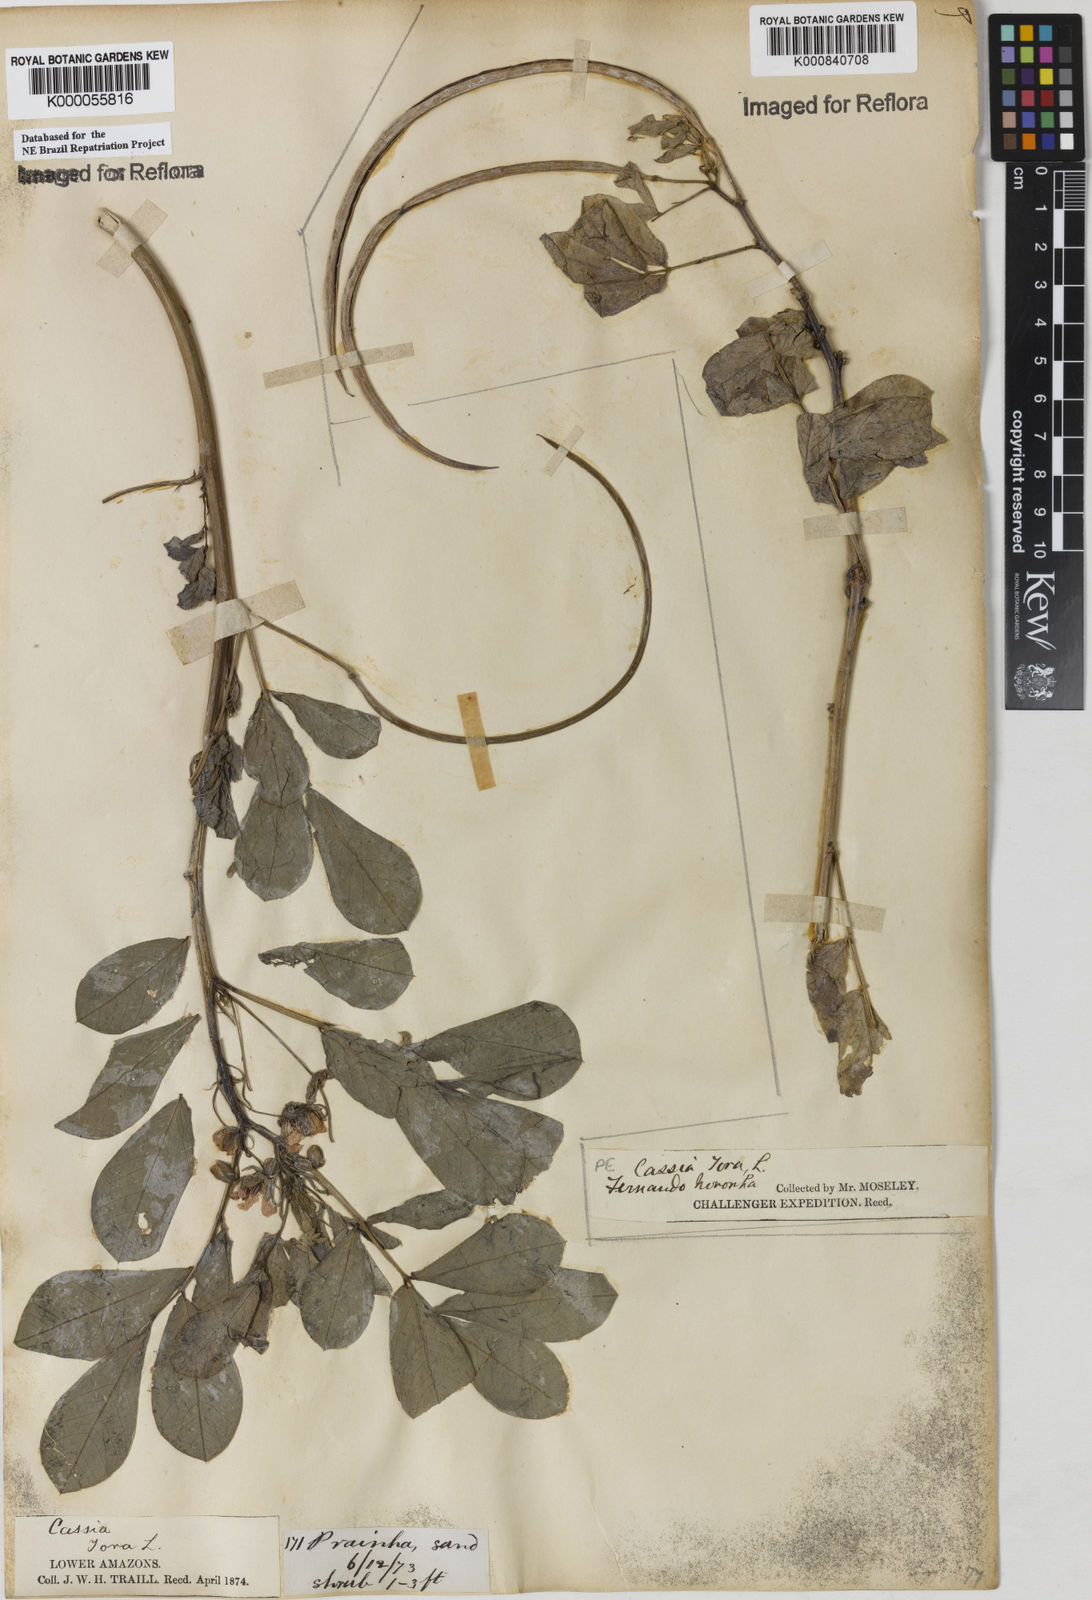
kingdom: Plantae
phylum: Tracheophyta
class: Magnoliopsida
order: Fabales
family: Fabaceae
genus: Senna
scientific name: Senna obtusifolia
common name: Java-bean
